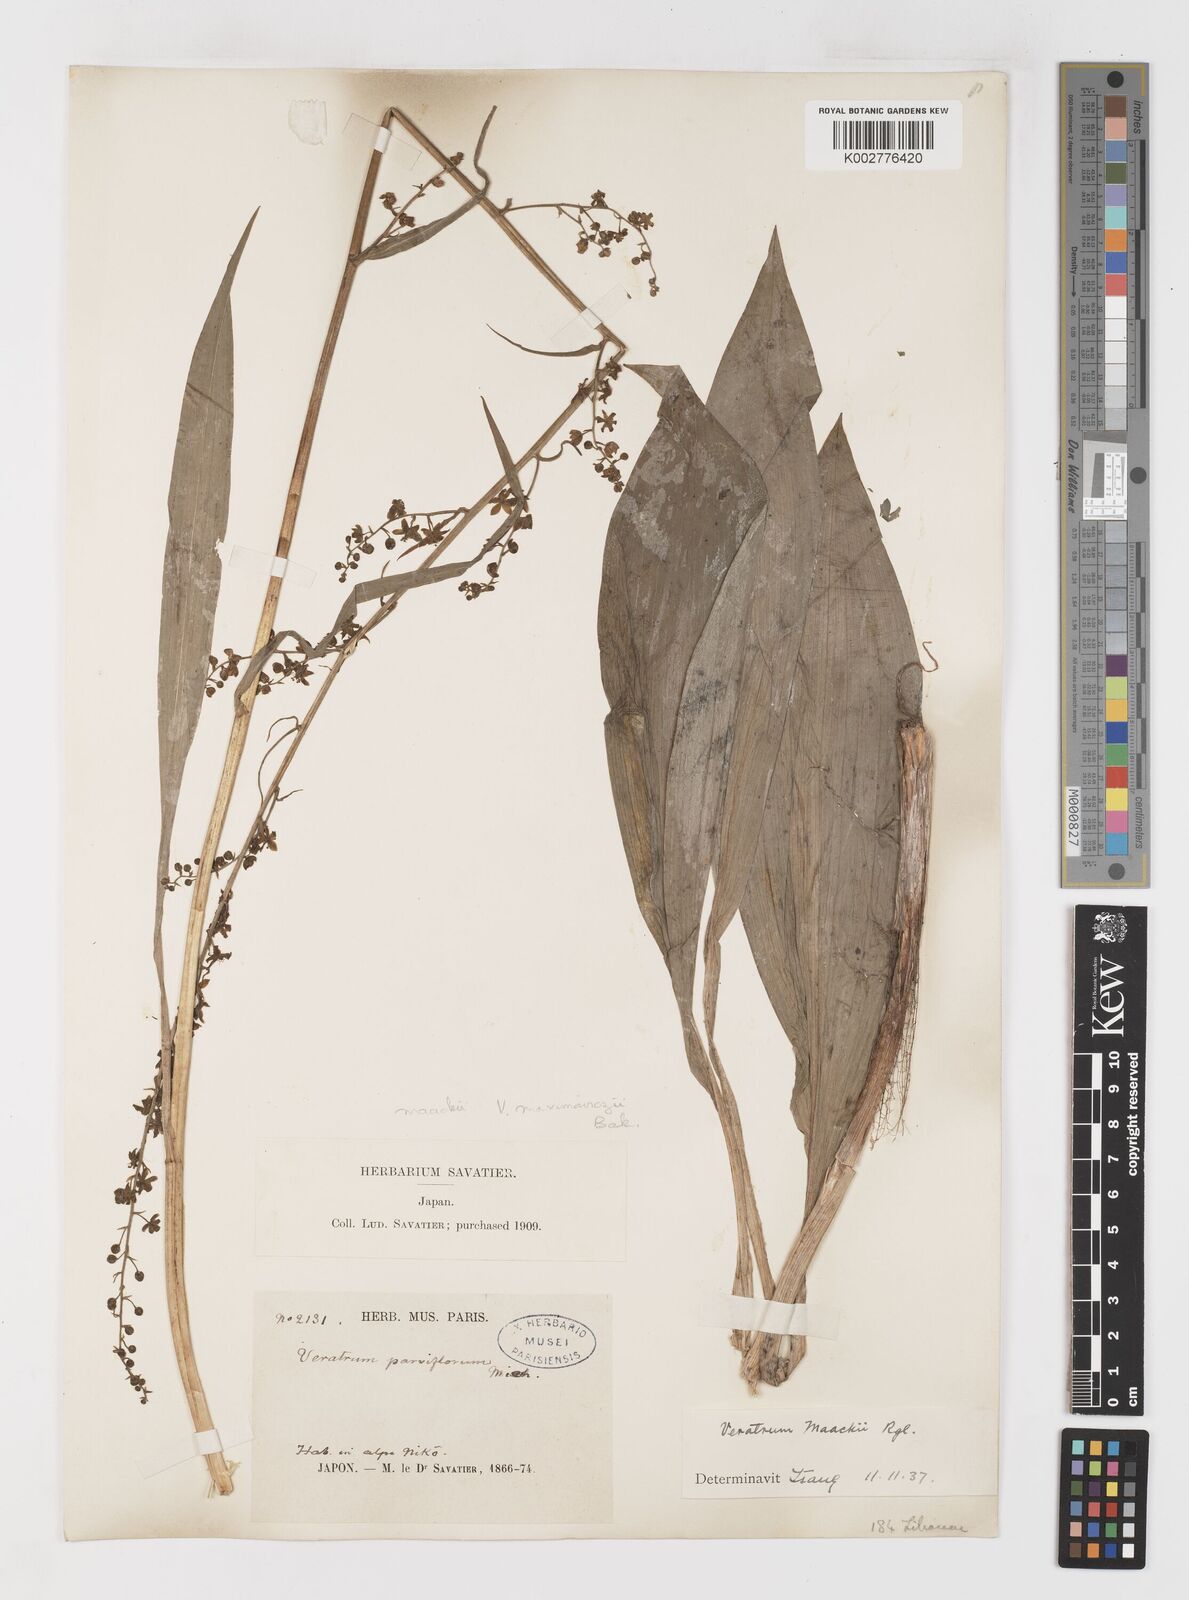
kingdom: Plantae
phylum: Tracheophyta
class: Liliopsida
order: Liliales
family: Melanthiaceae
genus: Veratrum
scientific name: Veratrum maackii
